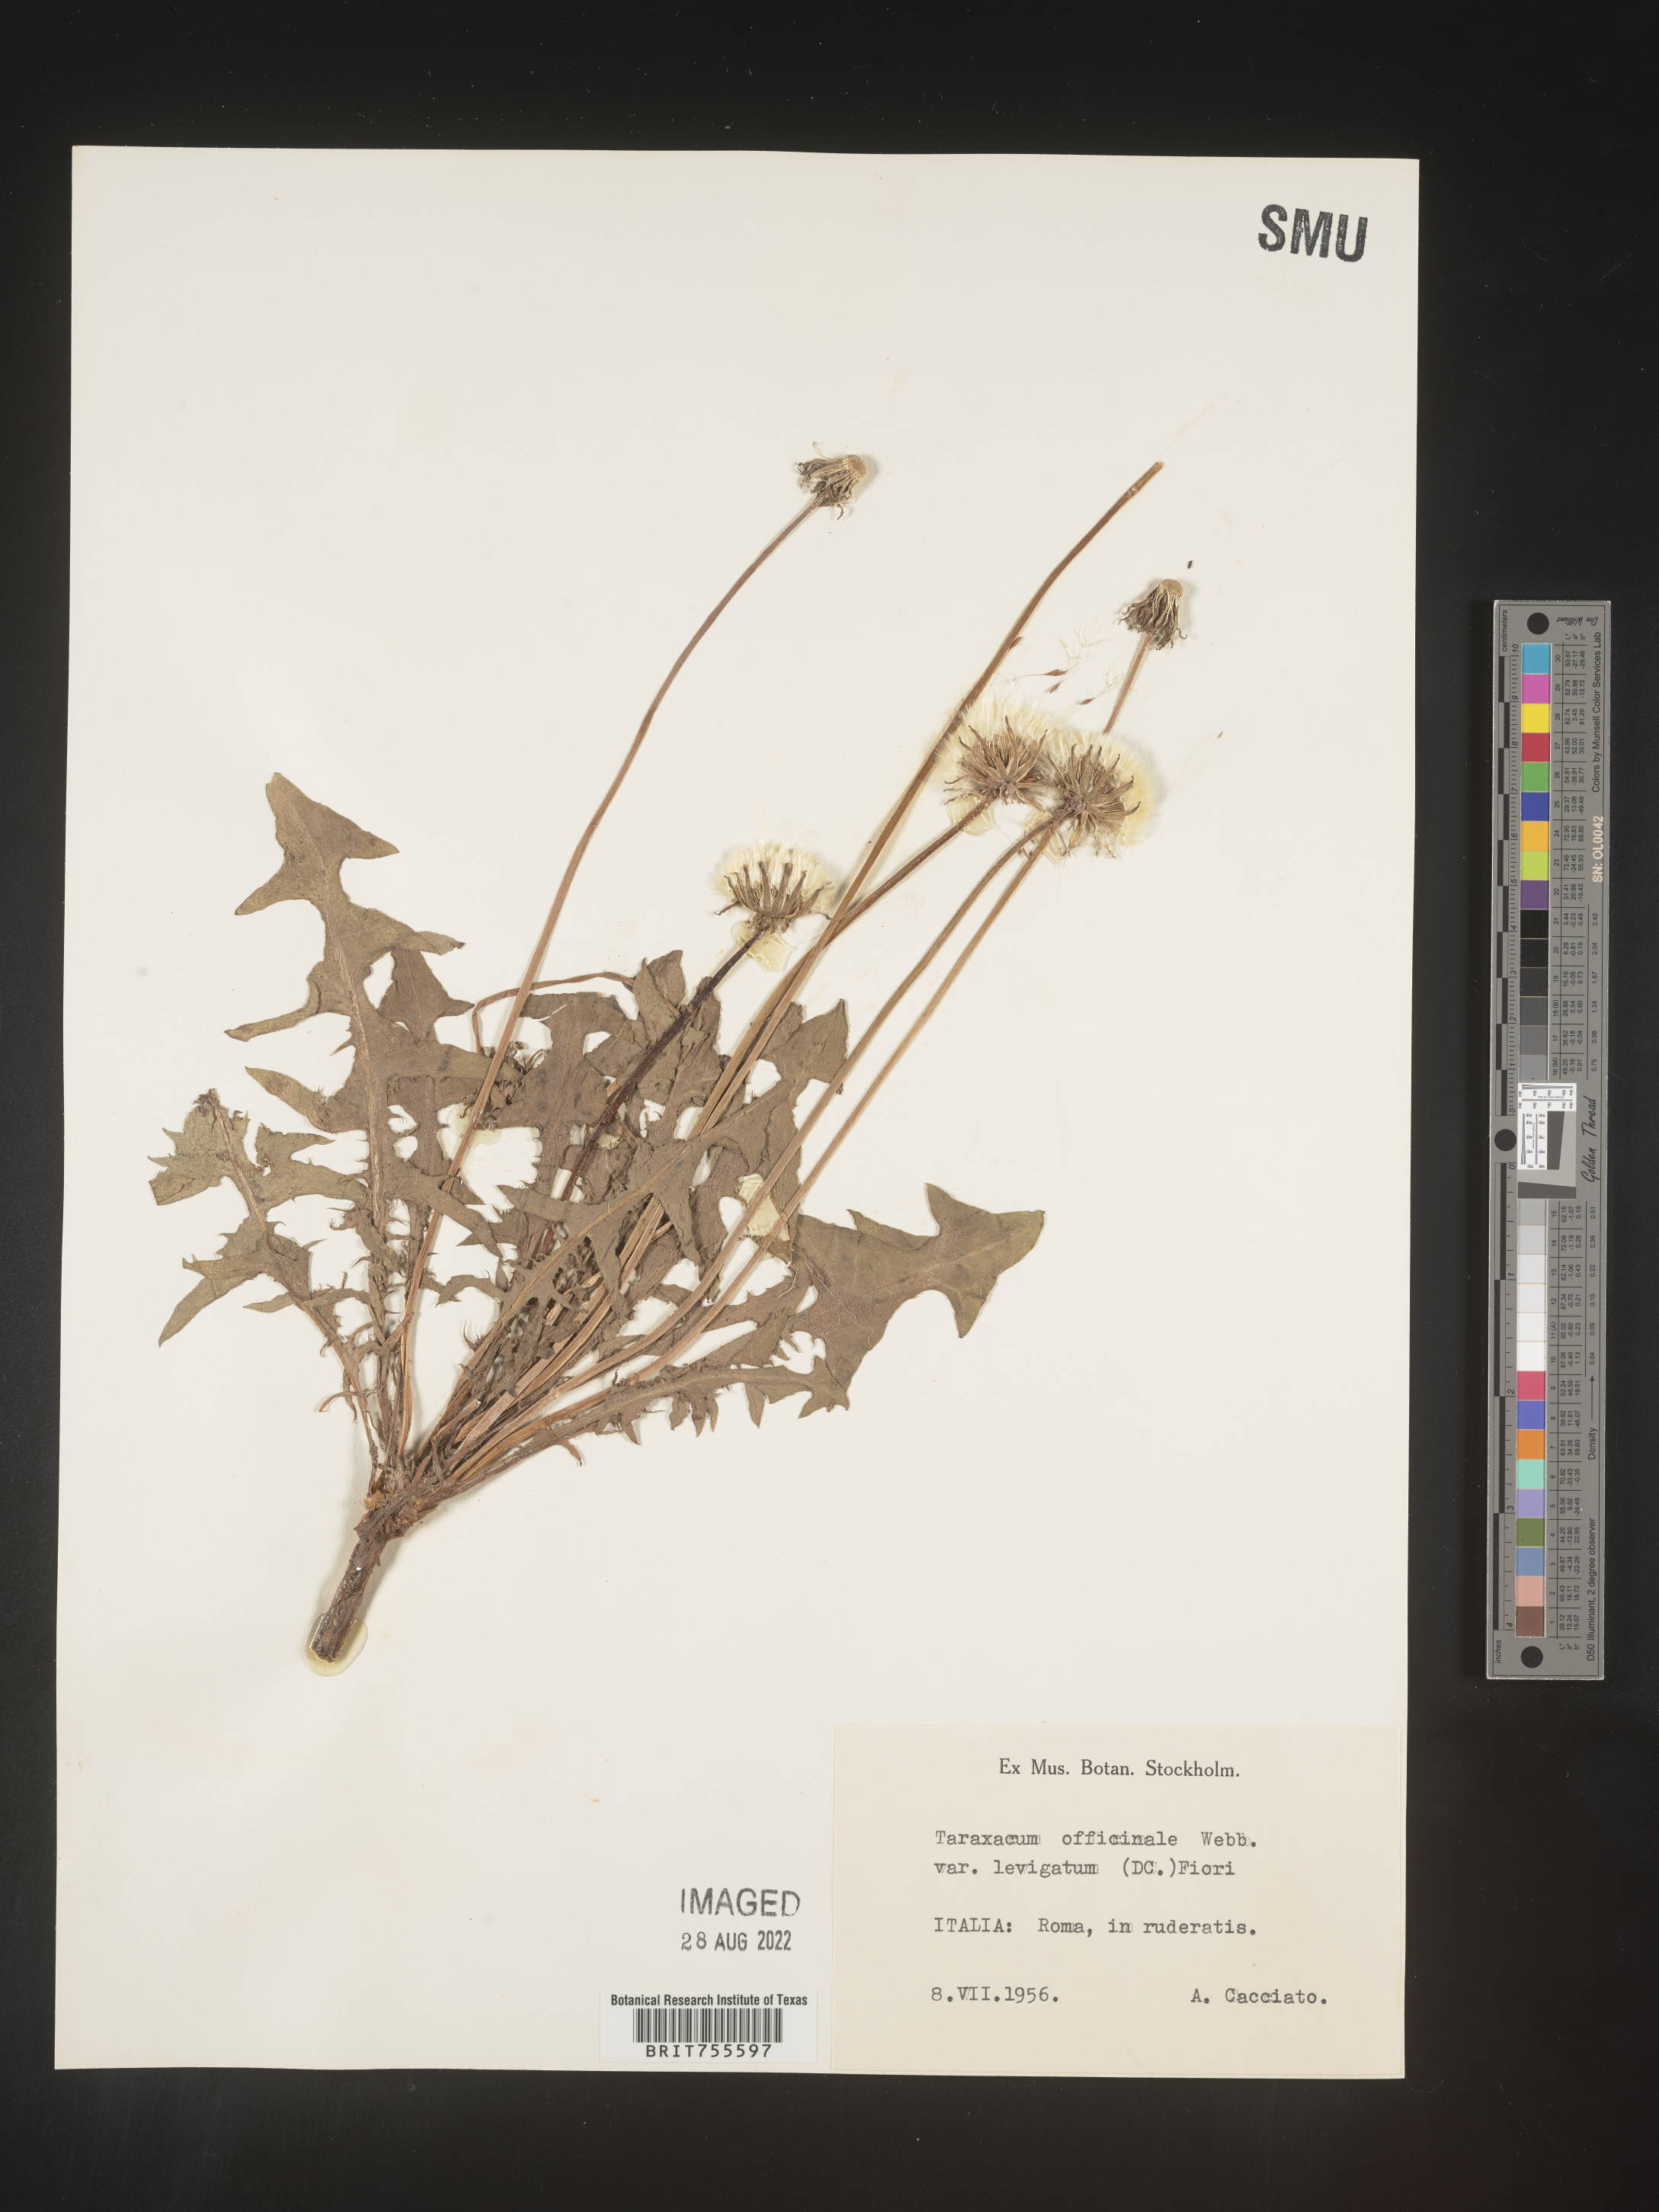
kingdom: Plantae
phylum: Tracheophyta
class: Magnoliopsida
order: Asterales
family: Asteraceae
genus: Taraxacum
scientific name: Taraxacum
